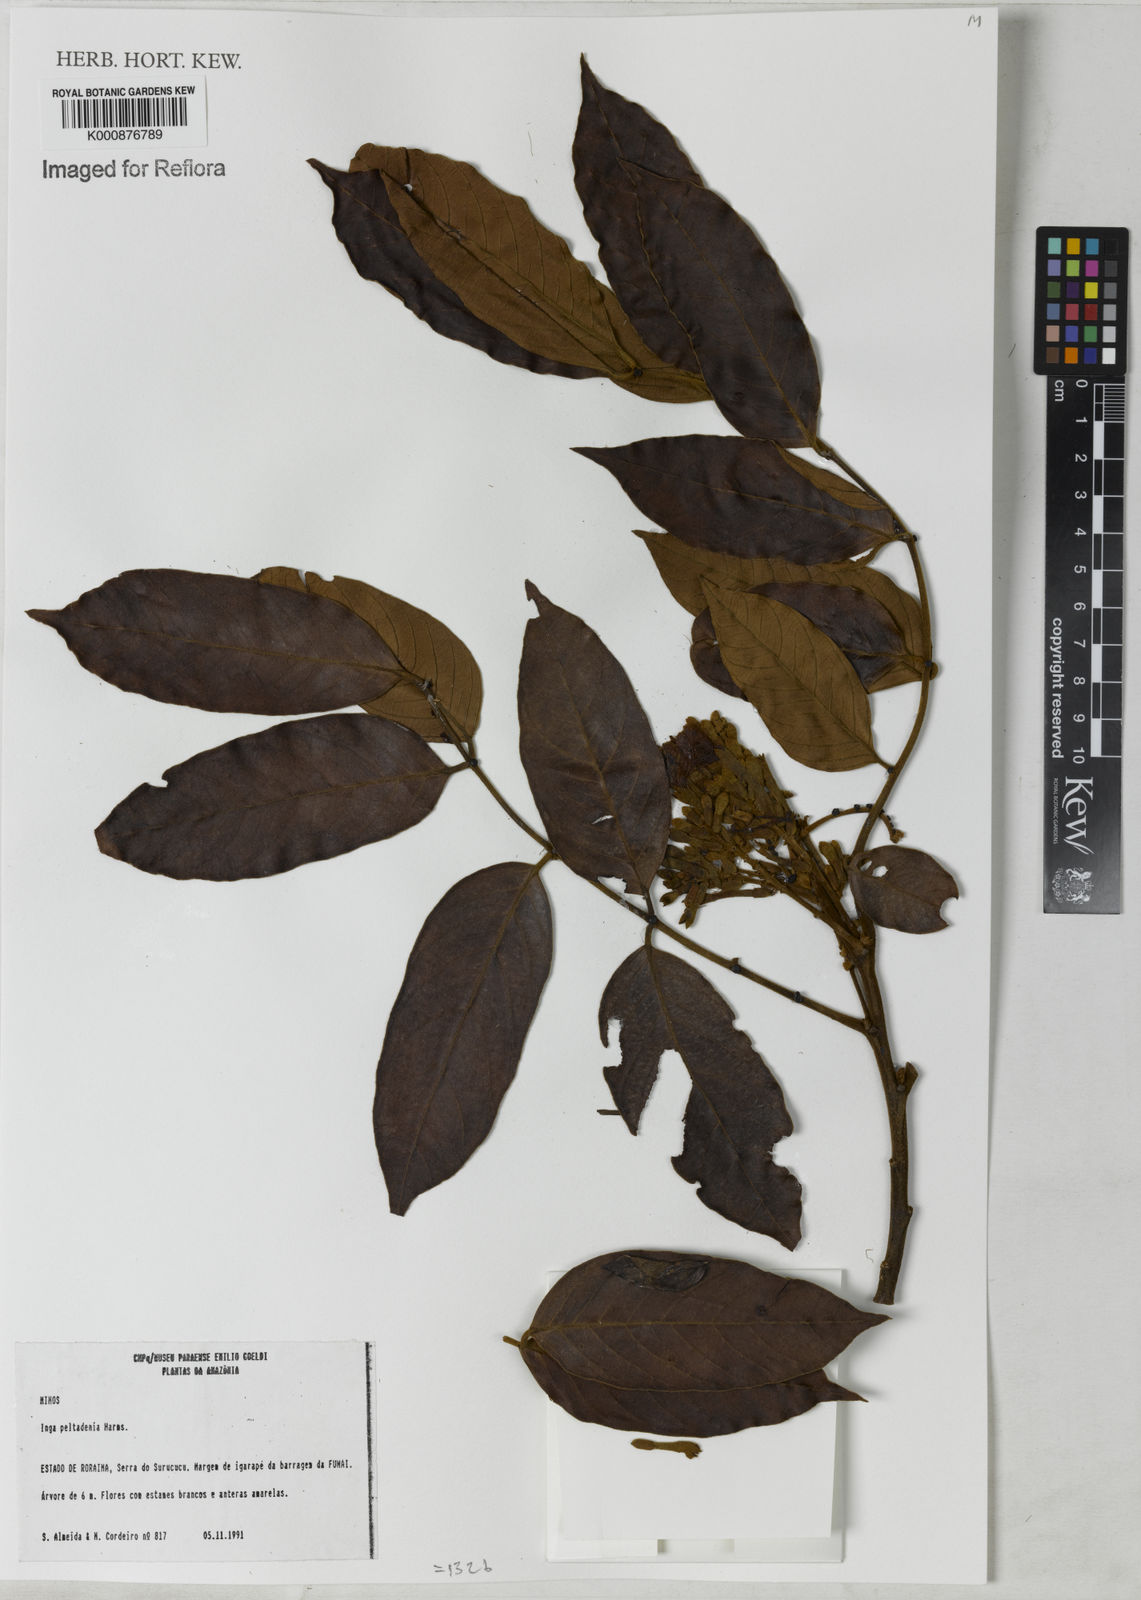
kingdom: Plantae
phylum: Tracheophyta
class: Magnoliopsida
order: Fabales
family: Fabaceae
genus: Inga
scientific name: Inga thibaudiana
